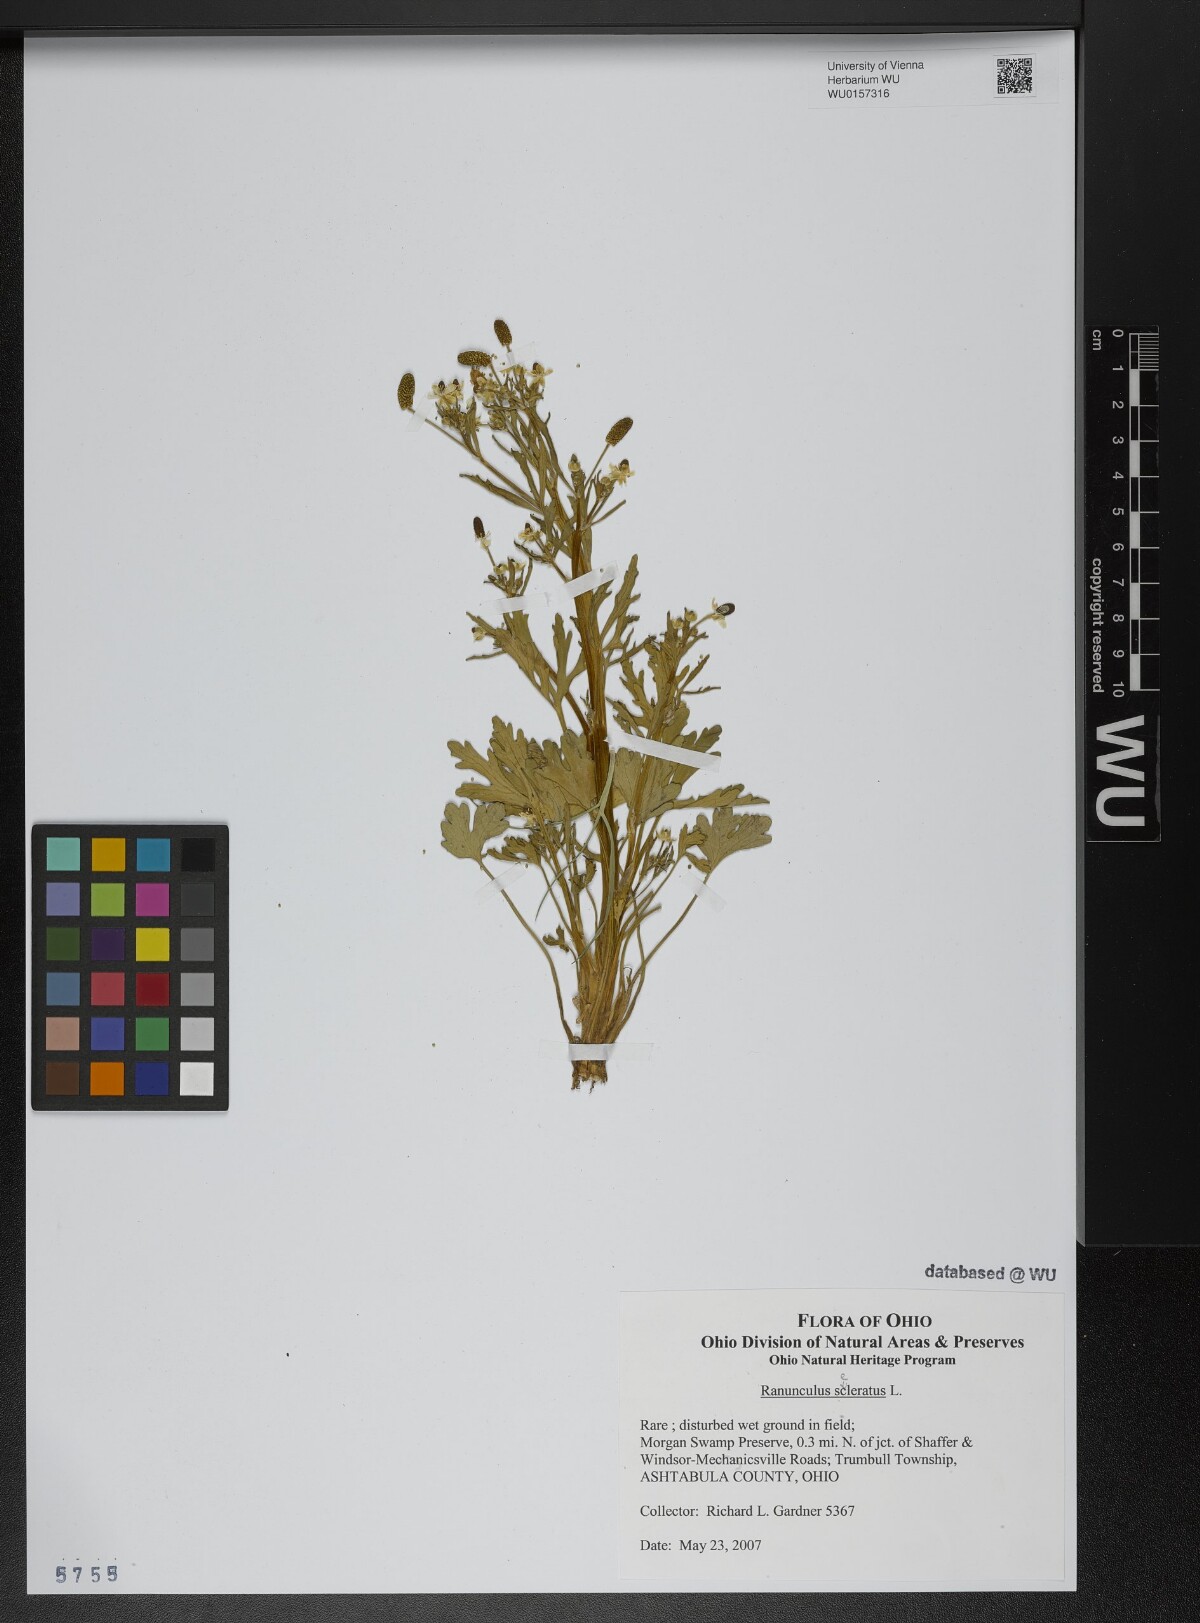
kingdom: Plantae
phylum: Tracheophyta
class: Magnoliopsida
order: Ranunculales
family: Ranunculaceae
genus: Ranunculus
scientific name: Ranunculus sceleratus
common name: Celery-leaved buttercup
